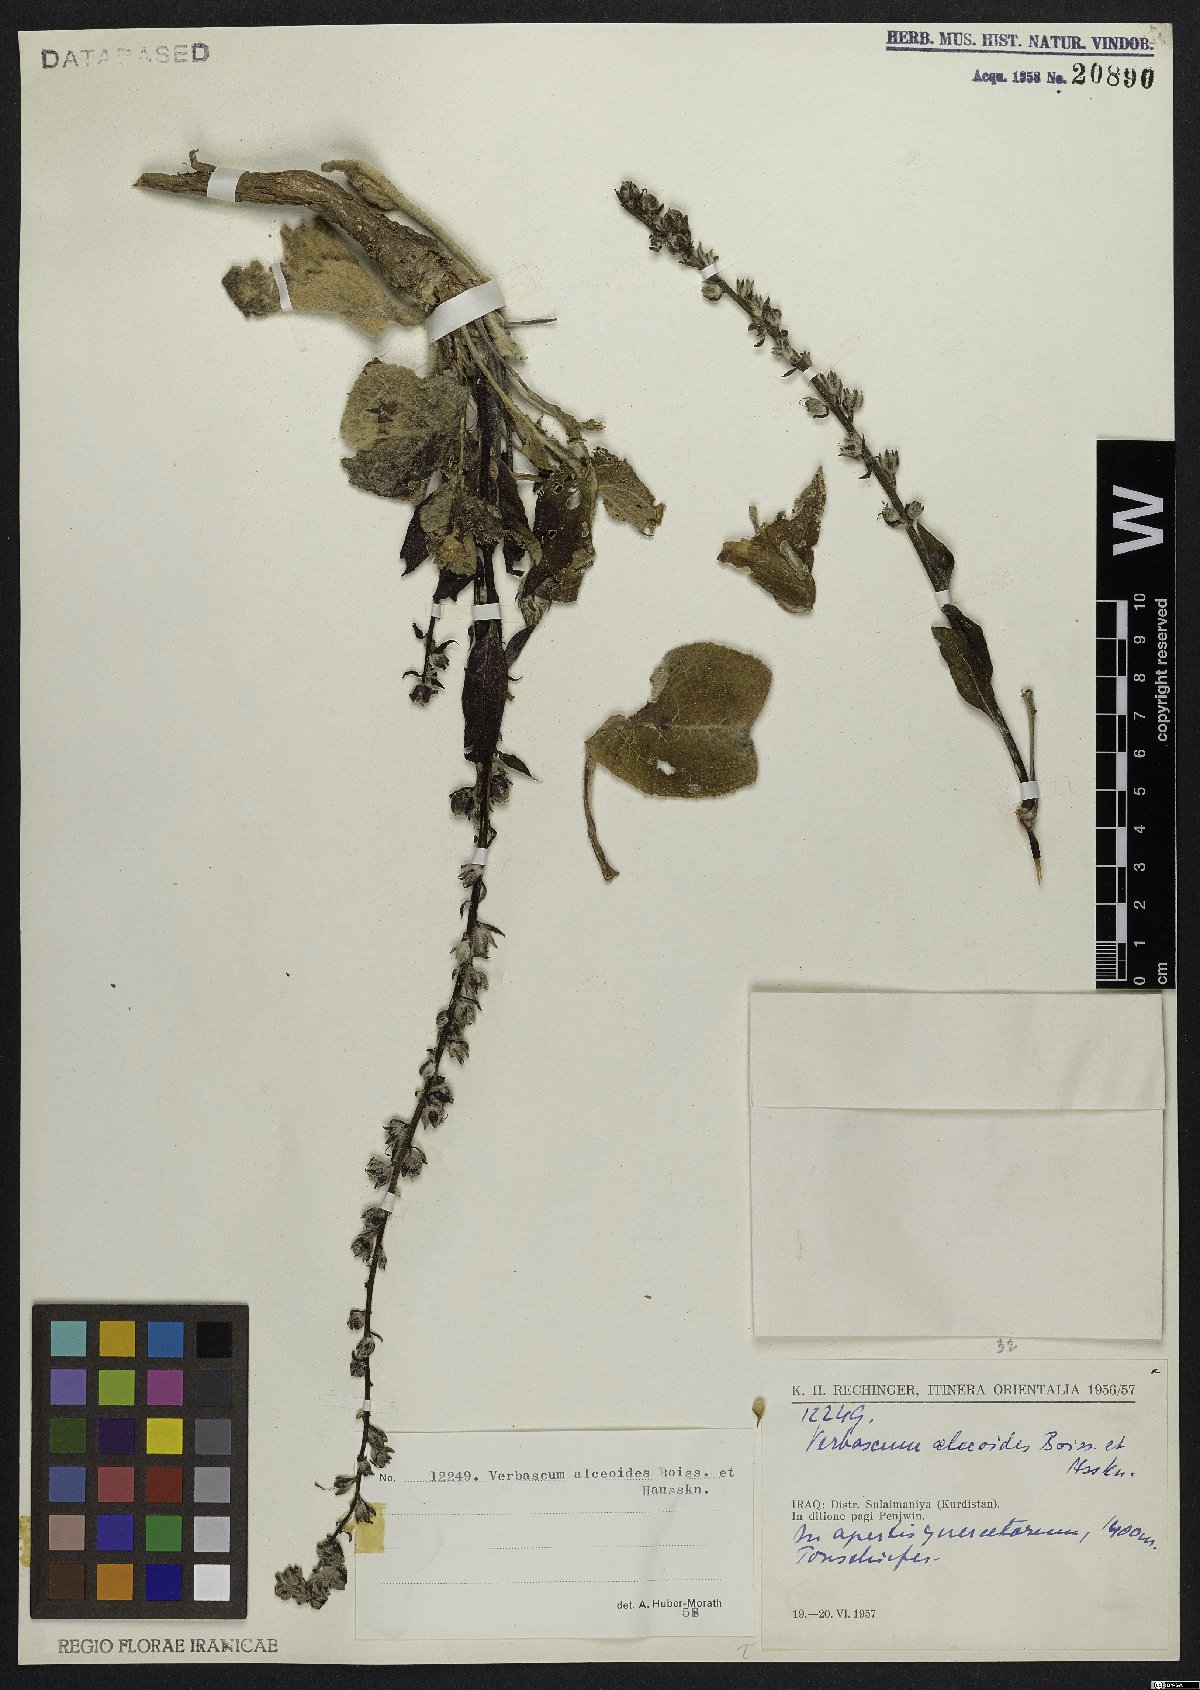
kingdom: Plantae
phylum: Tracheophyta
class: Magnoliopsida
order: Lamiales
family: Scrophulariaceae
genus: Verbascum
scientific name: Verbascum alceoides
